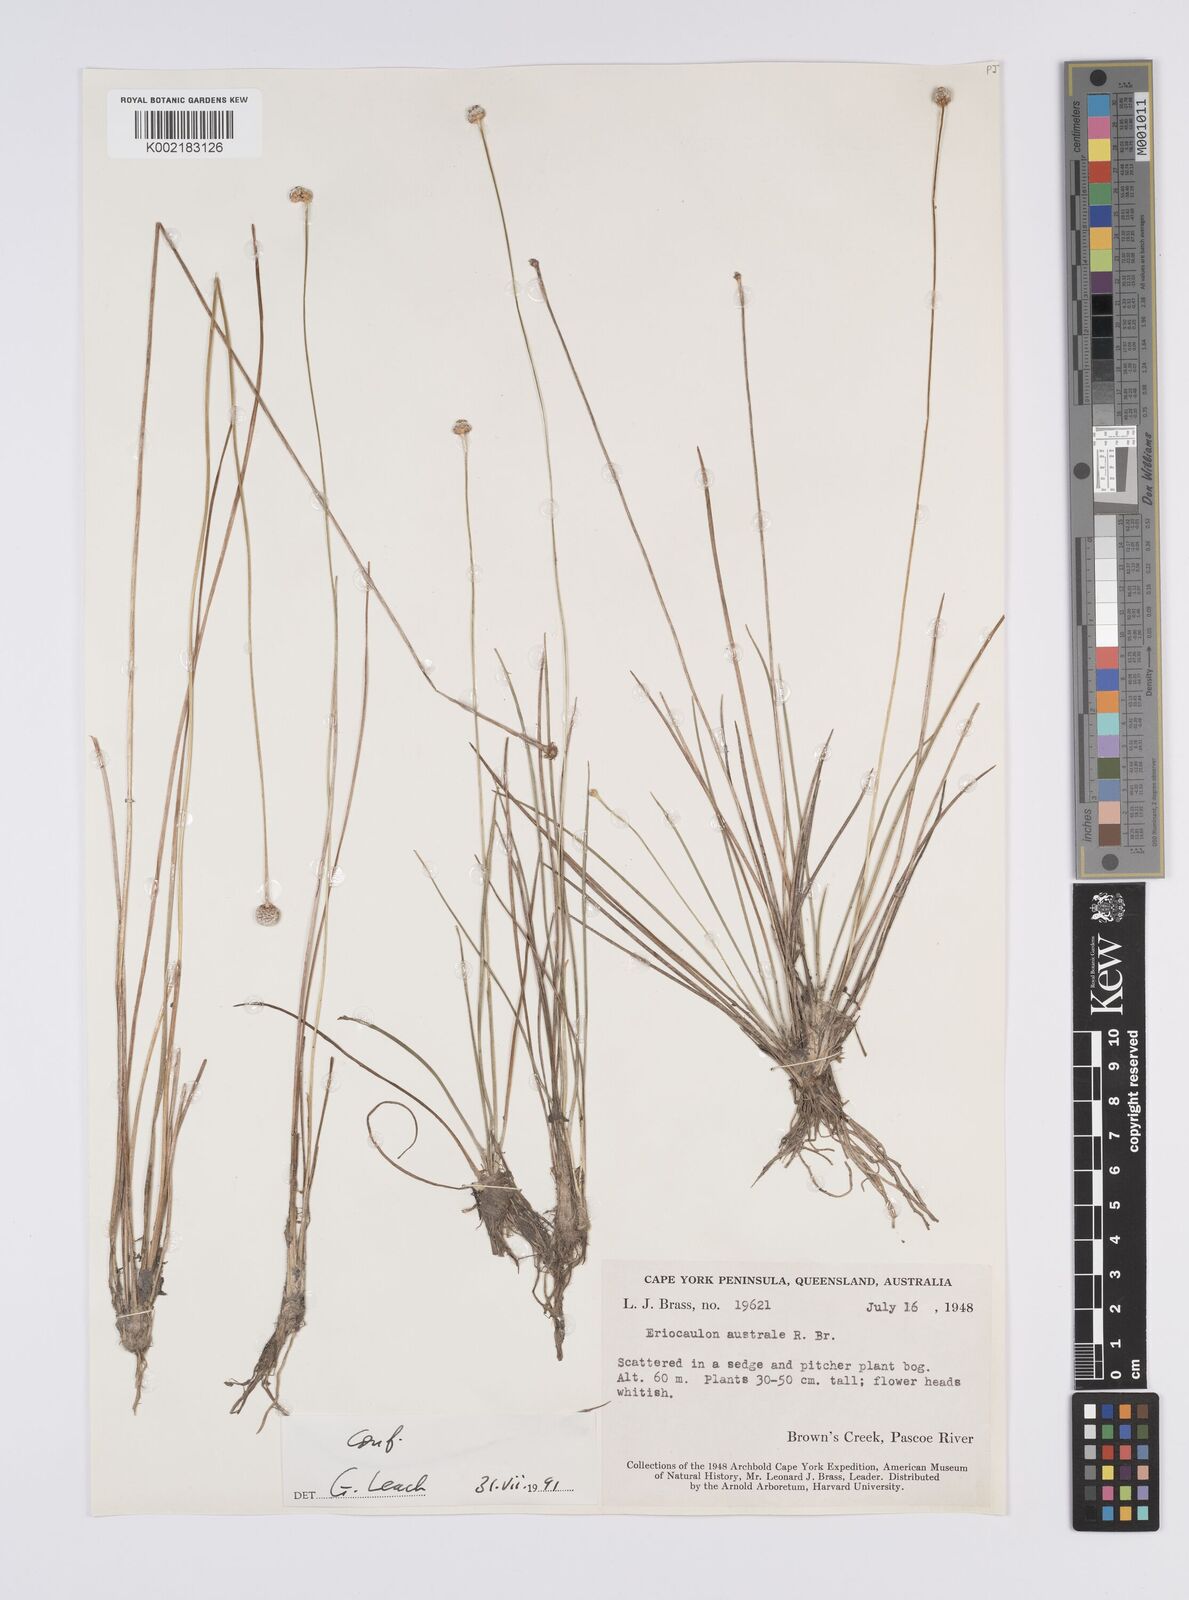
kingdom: Plantae
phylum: Tracheophyta
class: Liliopsida
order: Poales
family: Eriocaulaceae
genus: Eriocaulon
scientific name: Eriocaulon australe
